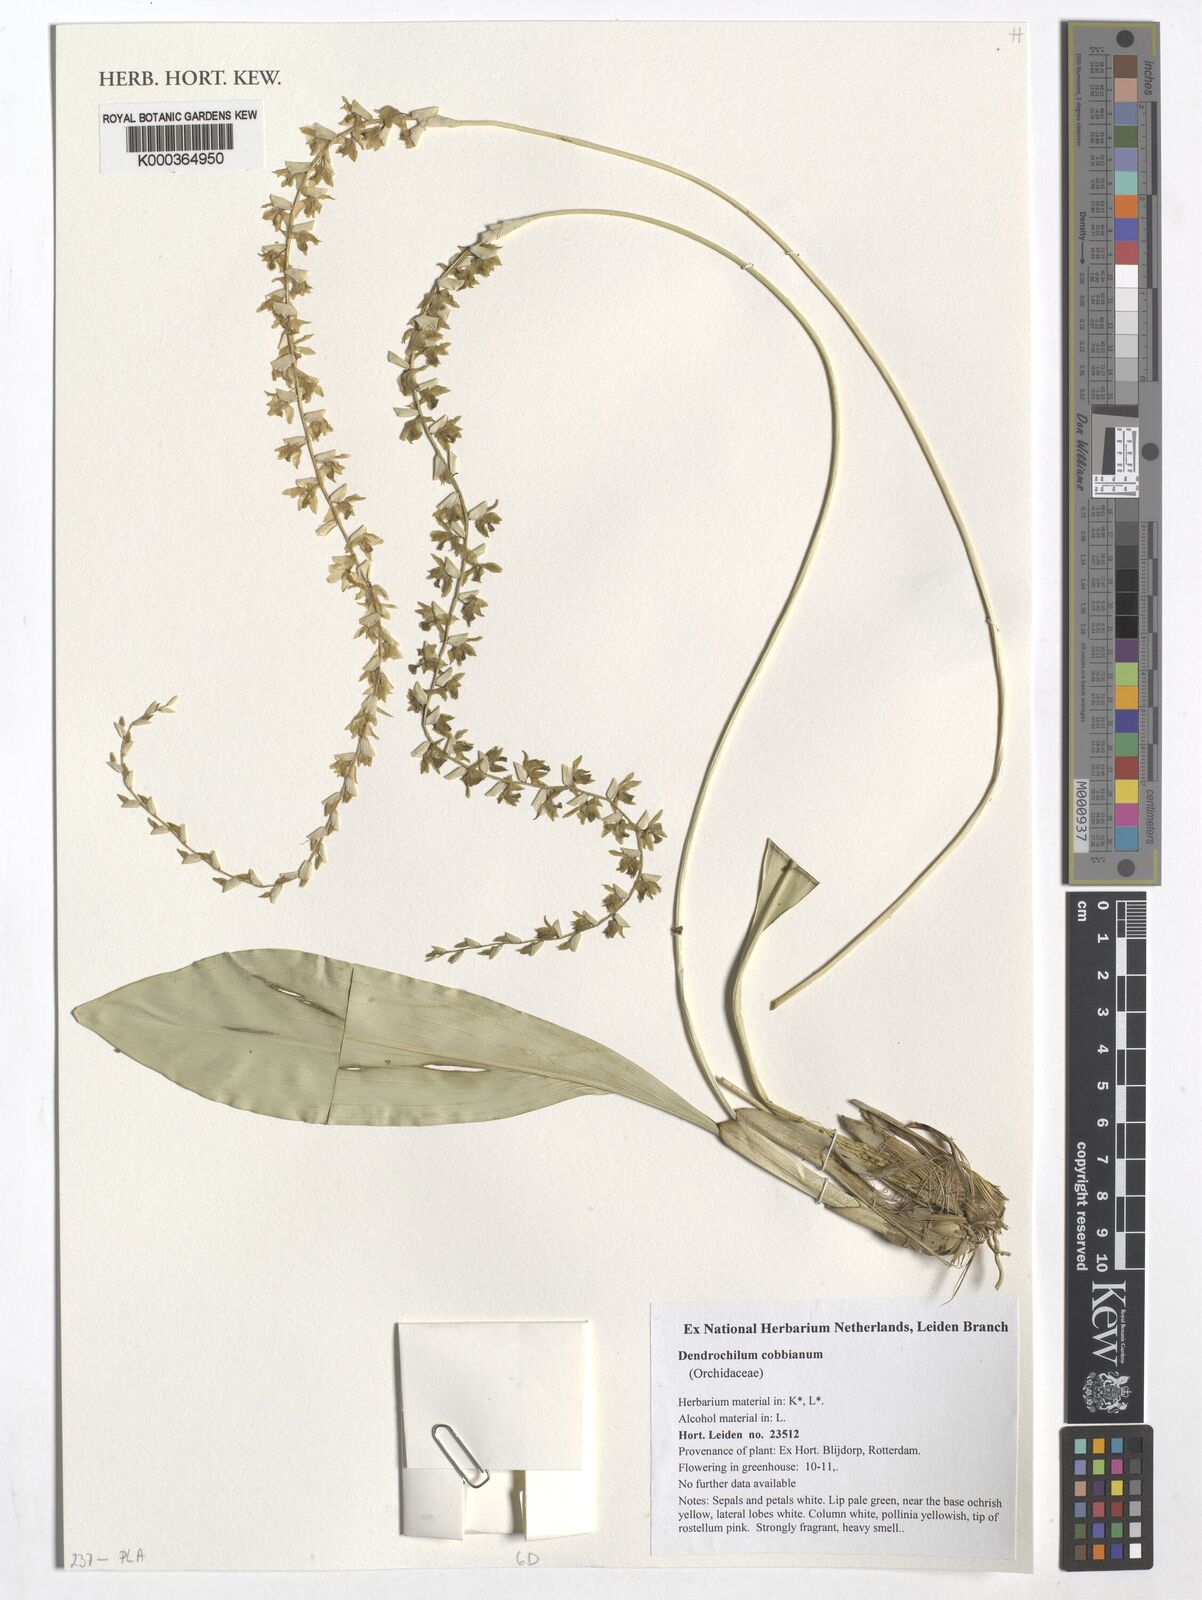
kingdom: Plantae
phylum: Tracheophyta
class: Liliopsida
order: Asparagales
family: Orchidaceae
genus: Coelogyne
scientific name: Coelogyne cobbiana
